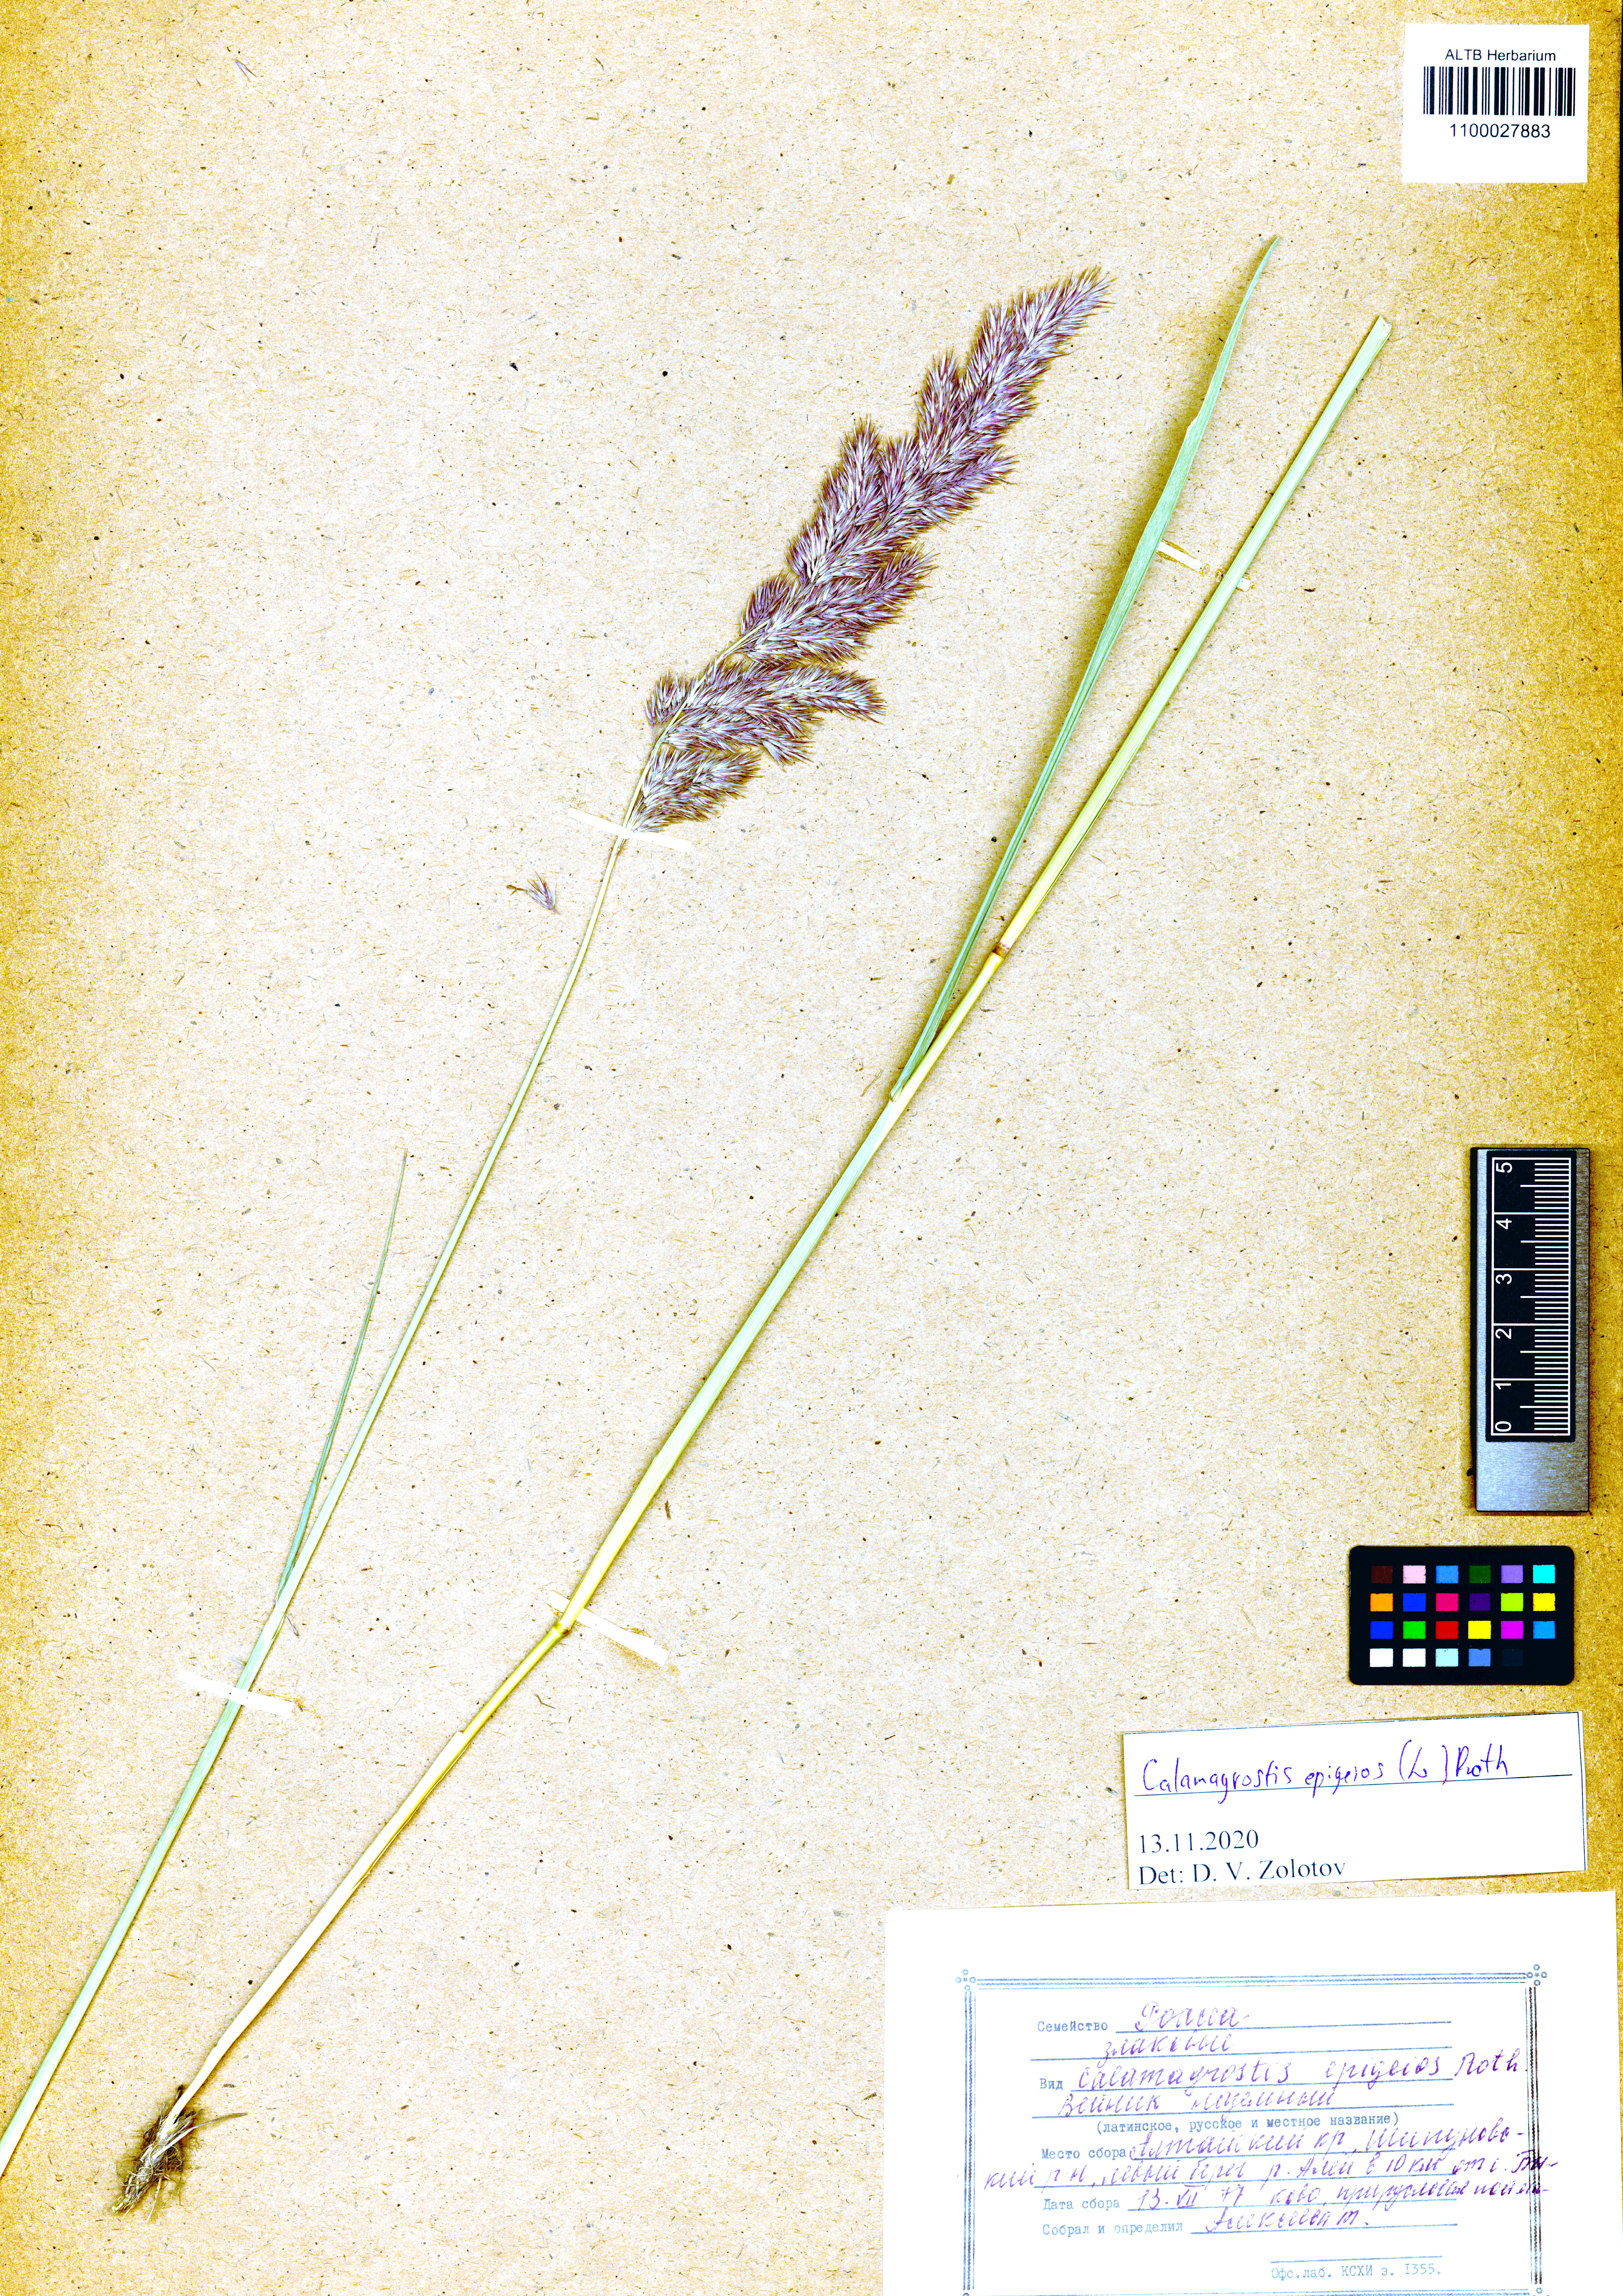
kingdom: Plantae
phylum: Tracheophyta
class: Liliopsida
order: Poales
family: Poaceae
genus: Calamagrostis
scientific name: Calamagrostis epigejos
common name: Wood small-reed
